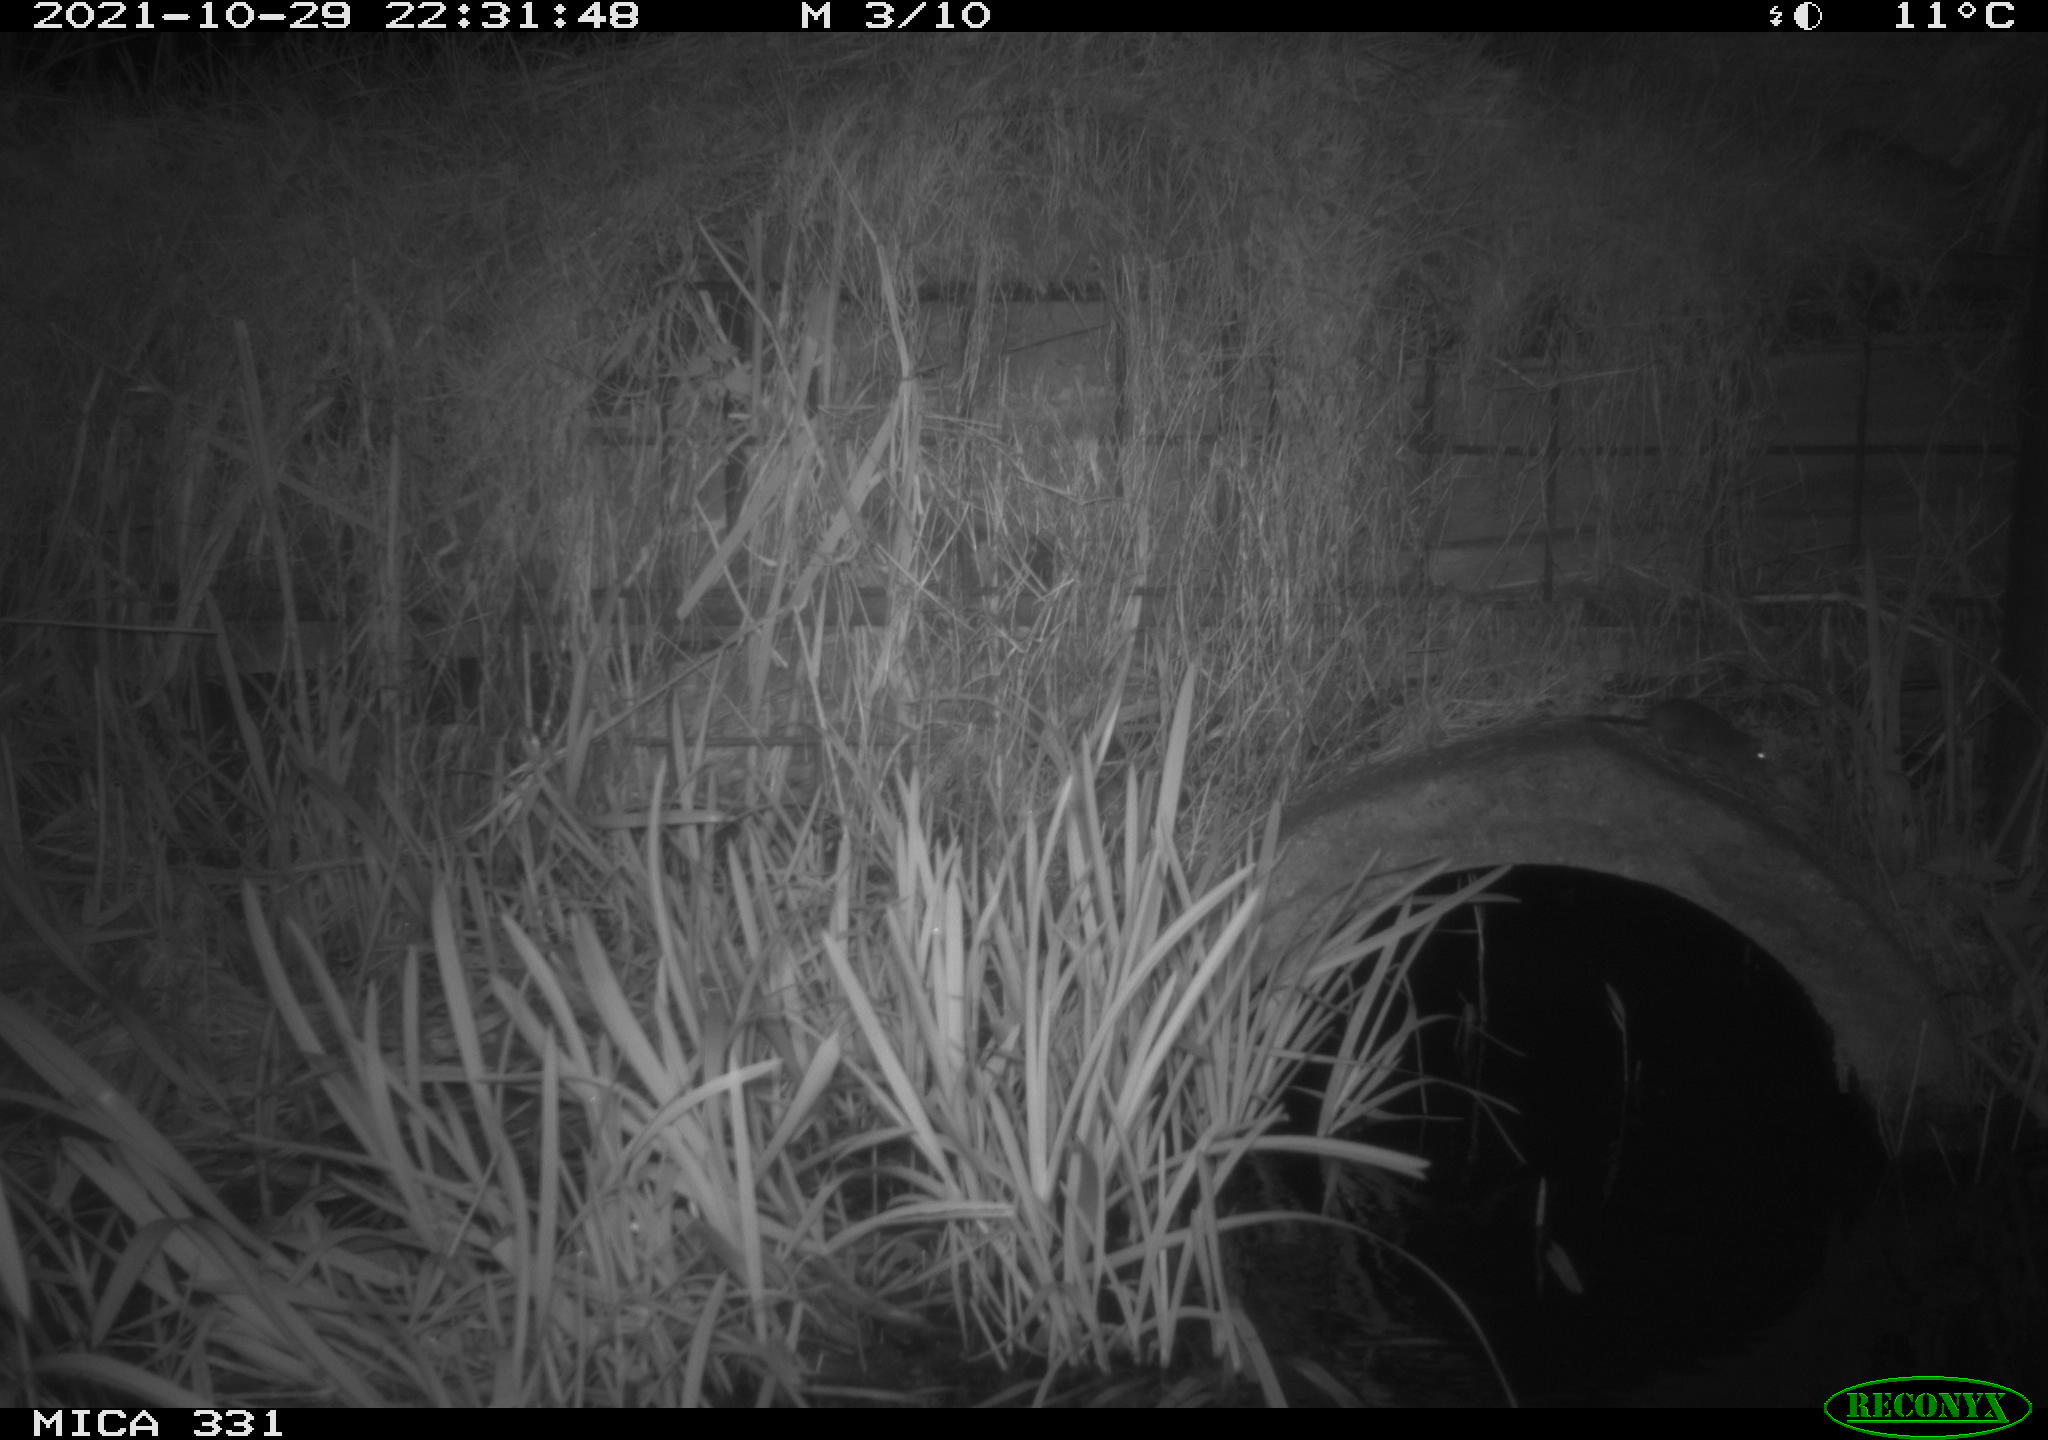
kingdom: Animalia
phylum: Chordata
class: Mammalia
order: Rodentia
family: Muridae
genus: Rattus
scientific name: Rattus norvegicus
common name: Brown rat
